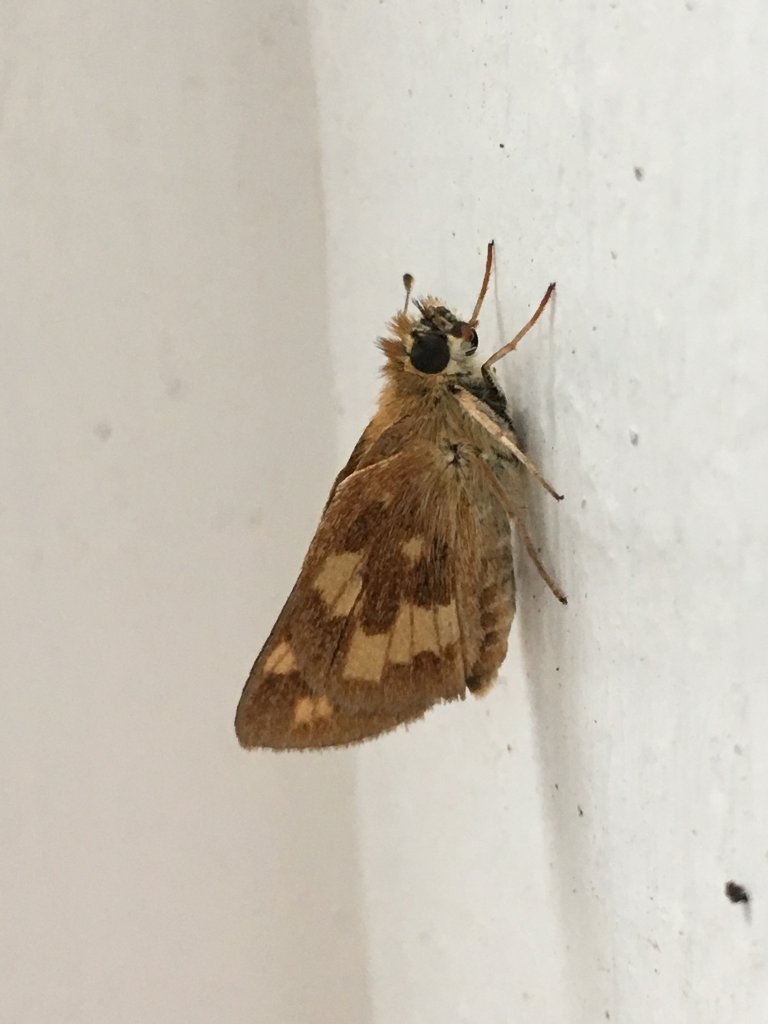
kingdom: Animalia
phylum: Arthropoda
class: Insecta
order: Lepidoptera
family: Hesperiidae
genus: Ochlodes
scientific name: Ochlodes sylvanoides
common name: Woodland Skipper
